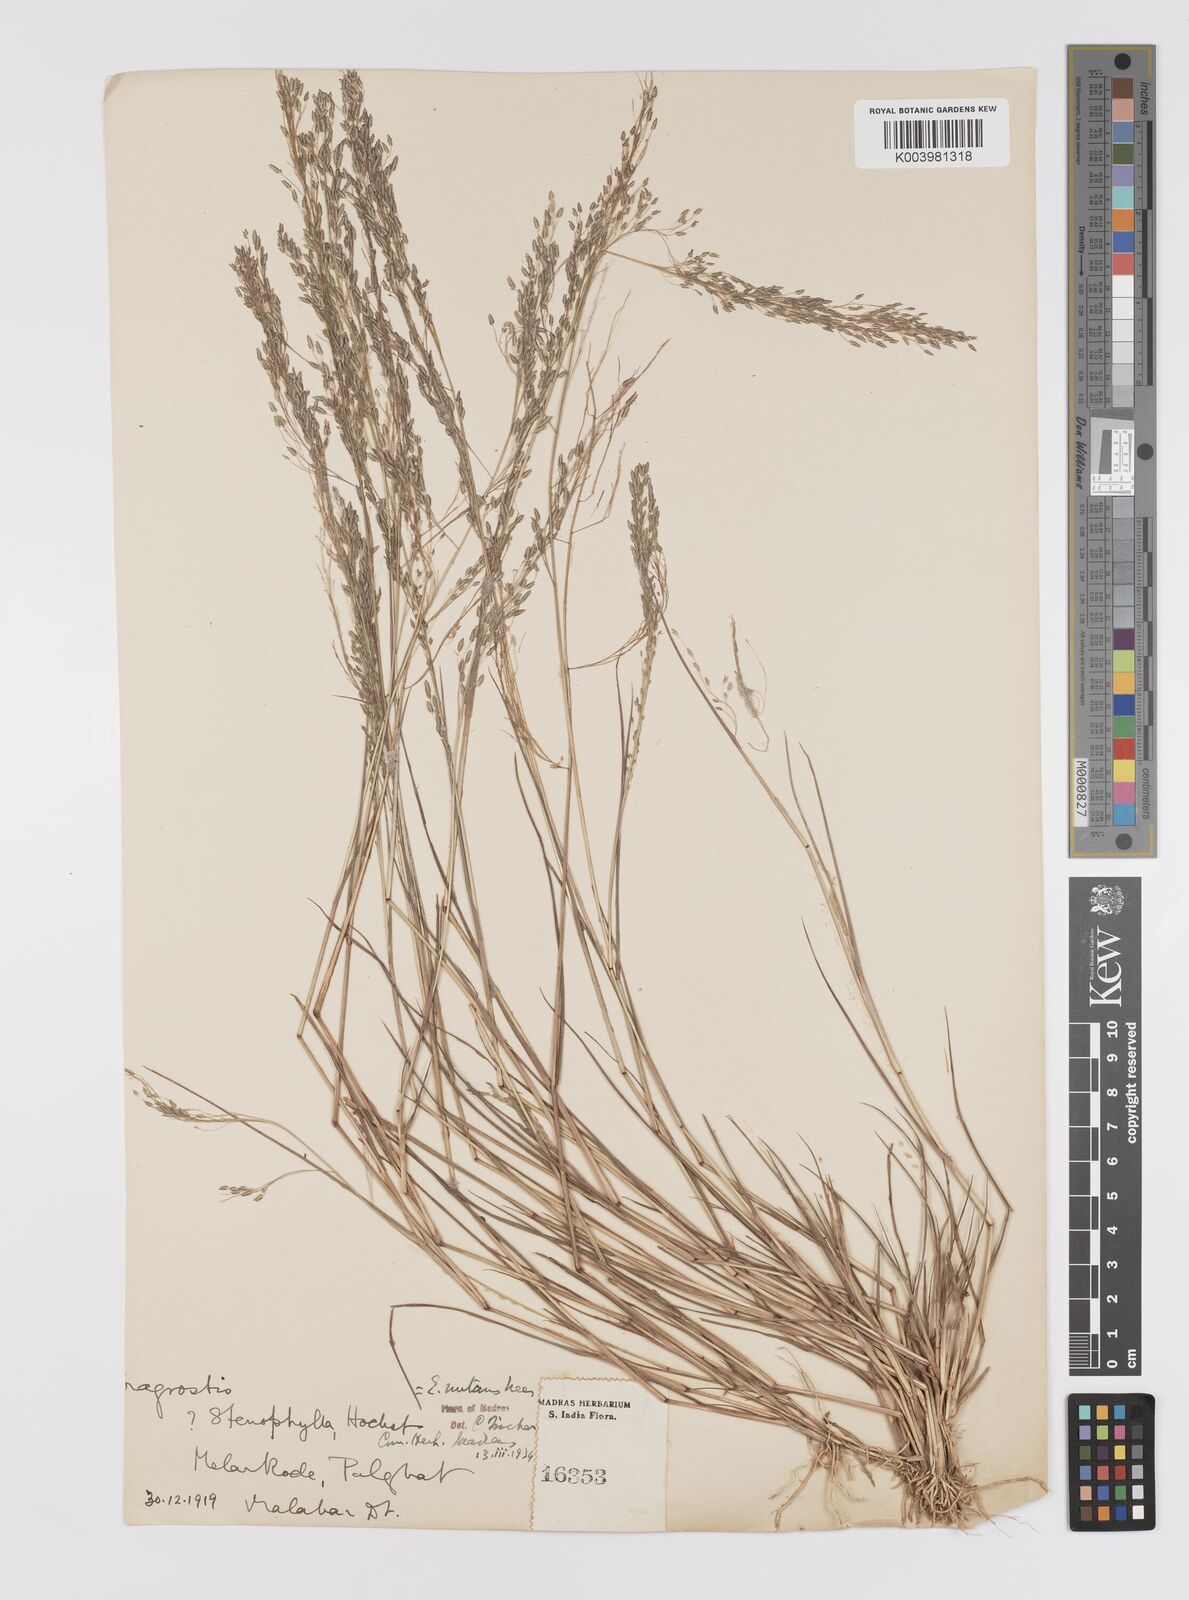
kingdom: Plantae
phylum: Tracheophyta
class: Liliopsida
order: Poales
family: Poaceae
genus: Eragrostis
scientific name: Eragrostis gangetica
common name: Slimflower lovegrass
